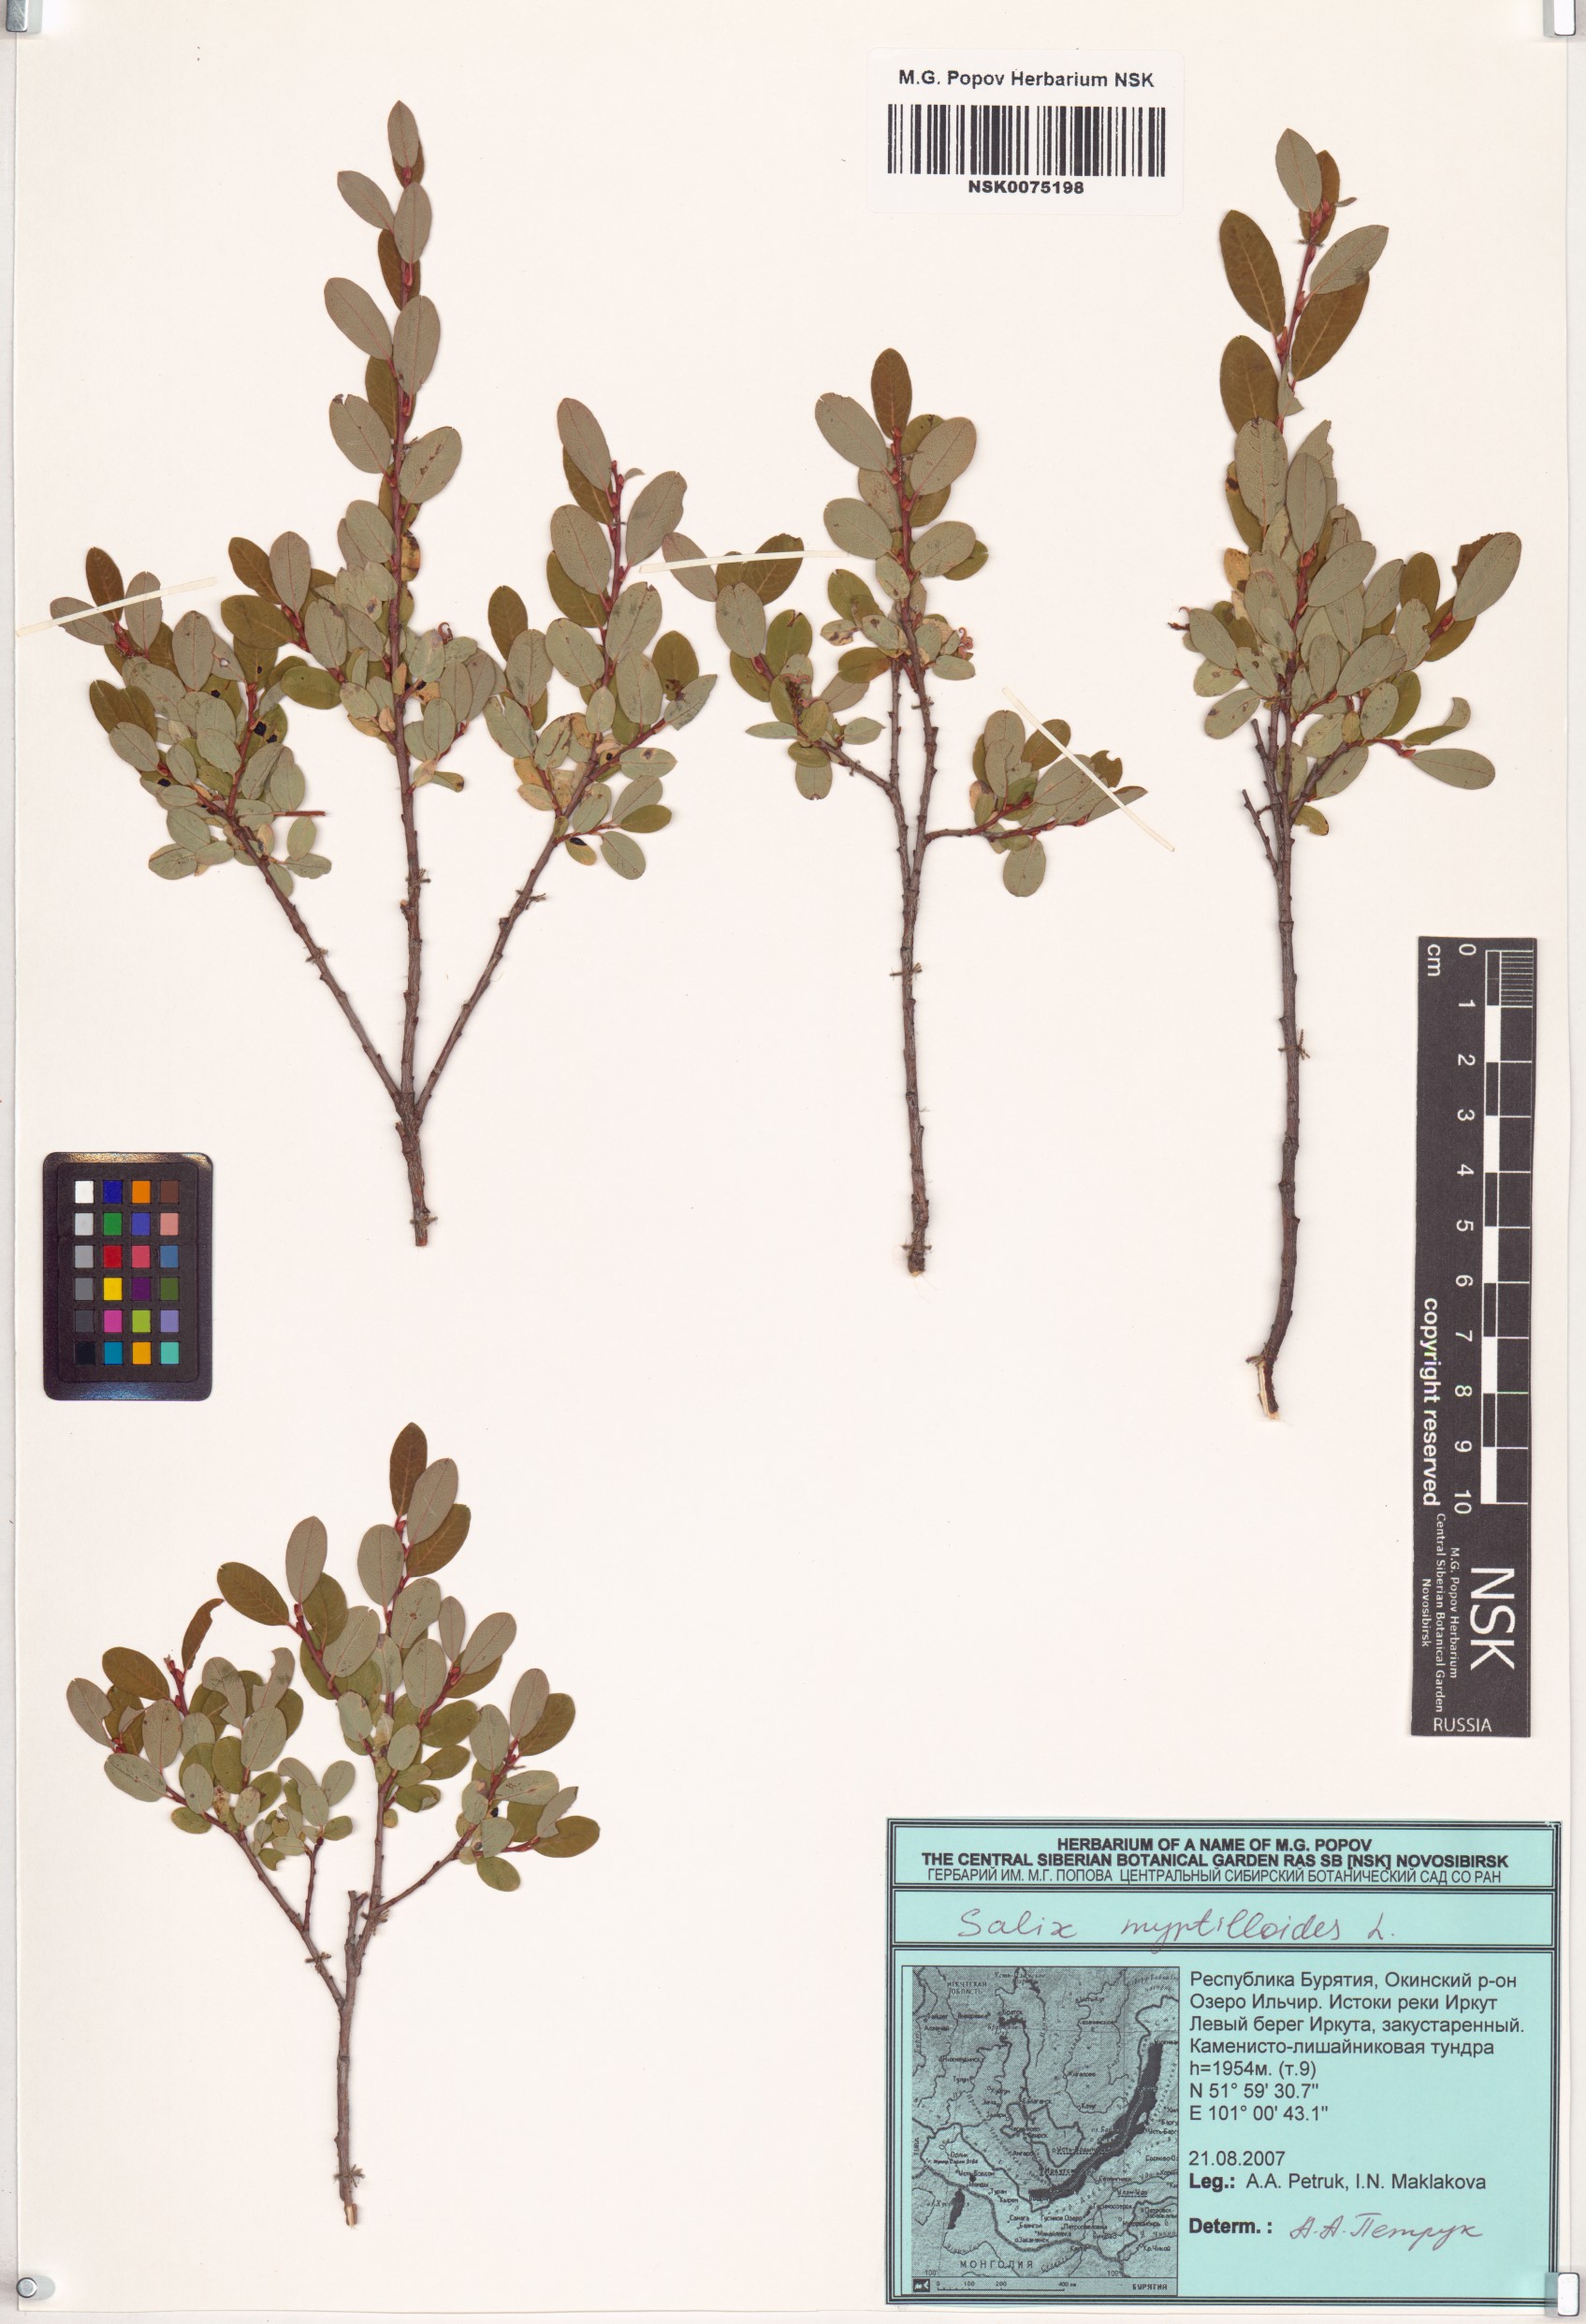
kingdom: Plantae
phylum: Tracheophyta
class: Magnoliopsida
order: Malpighiales
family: Salicaceae
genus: Salix
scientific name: Salix myrtilloides
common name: Myrtle-leaved willow
